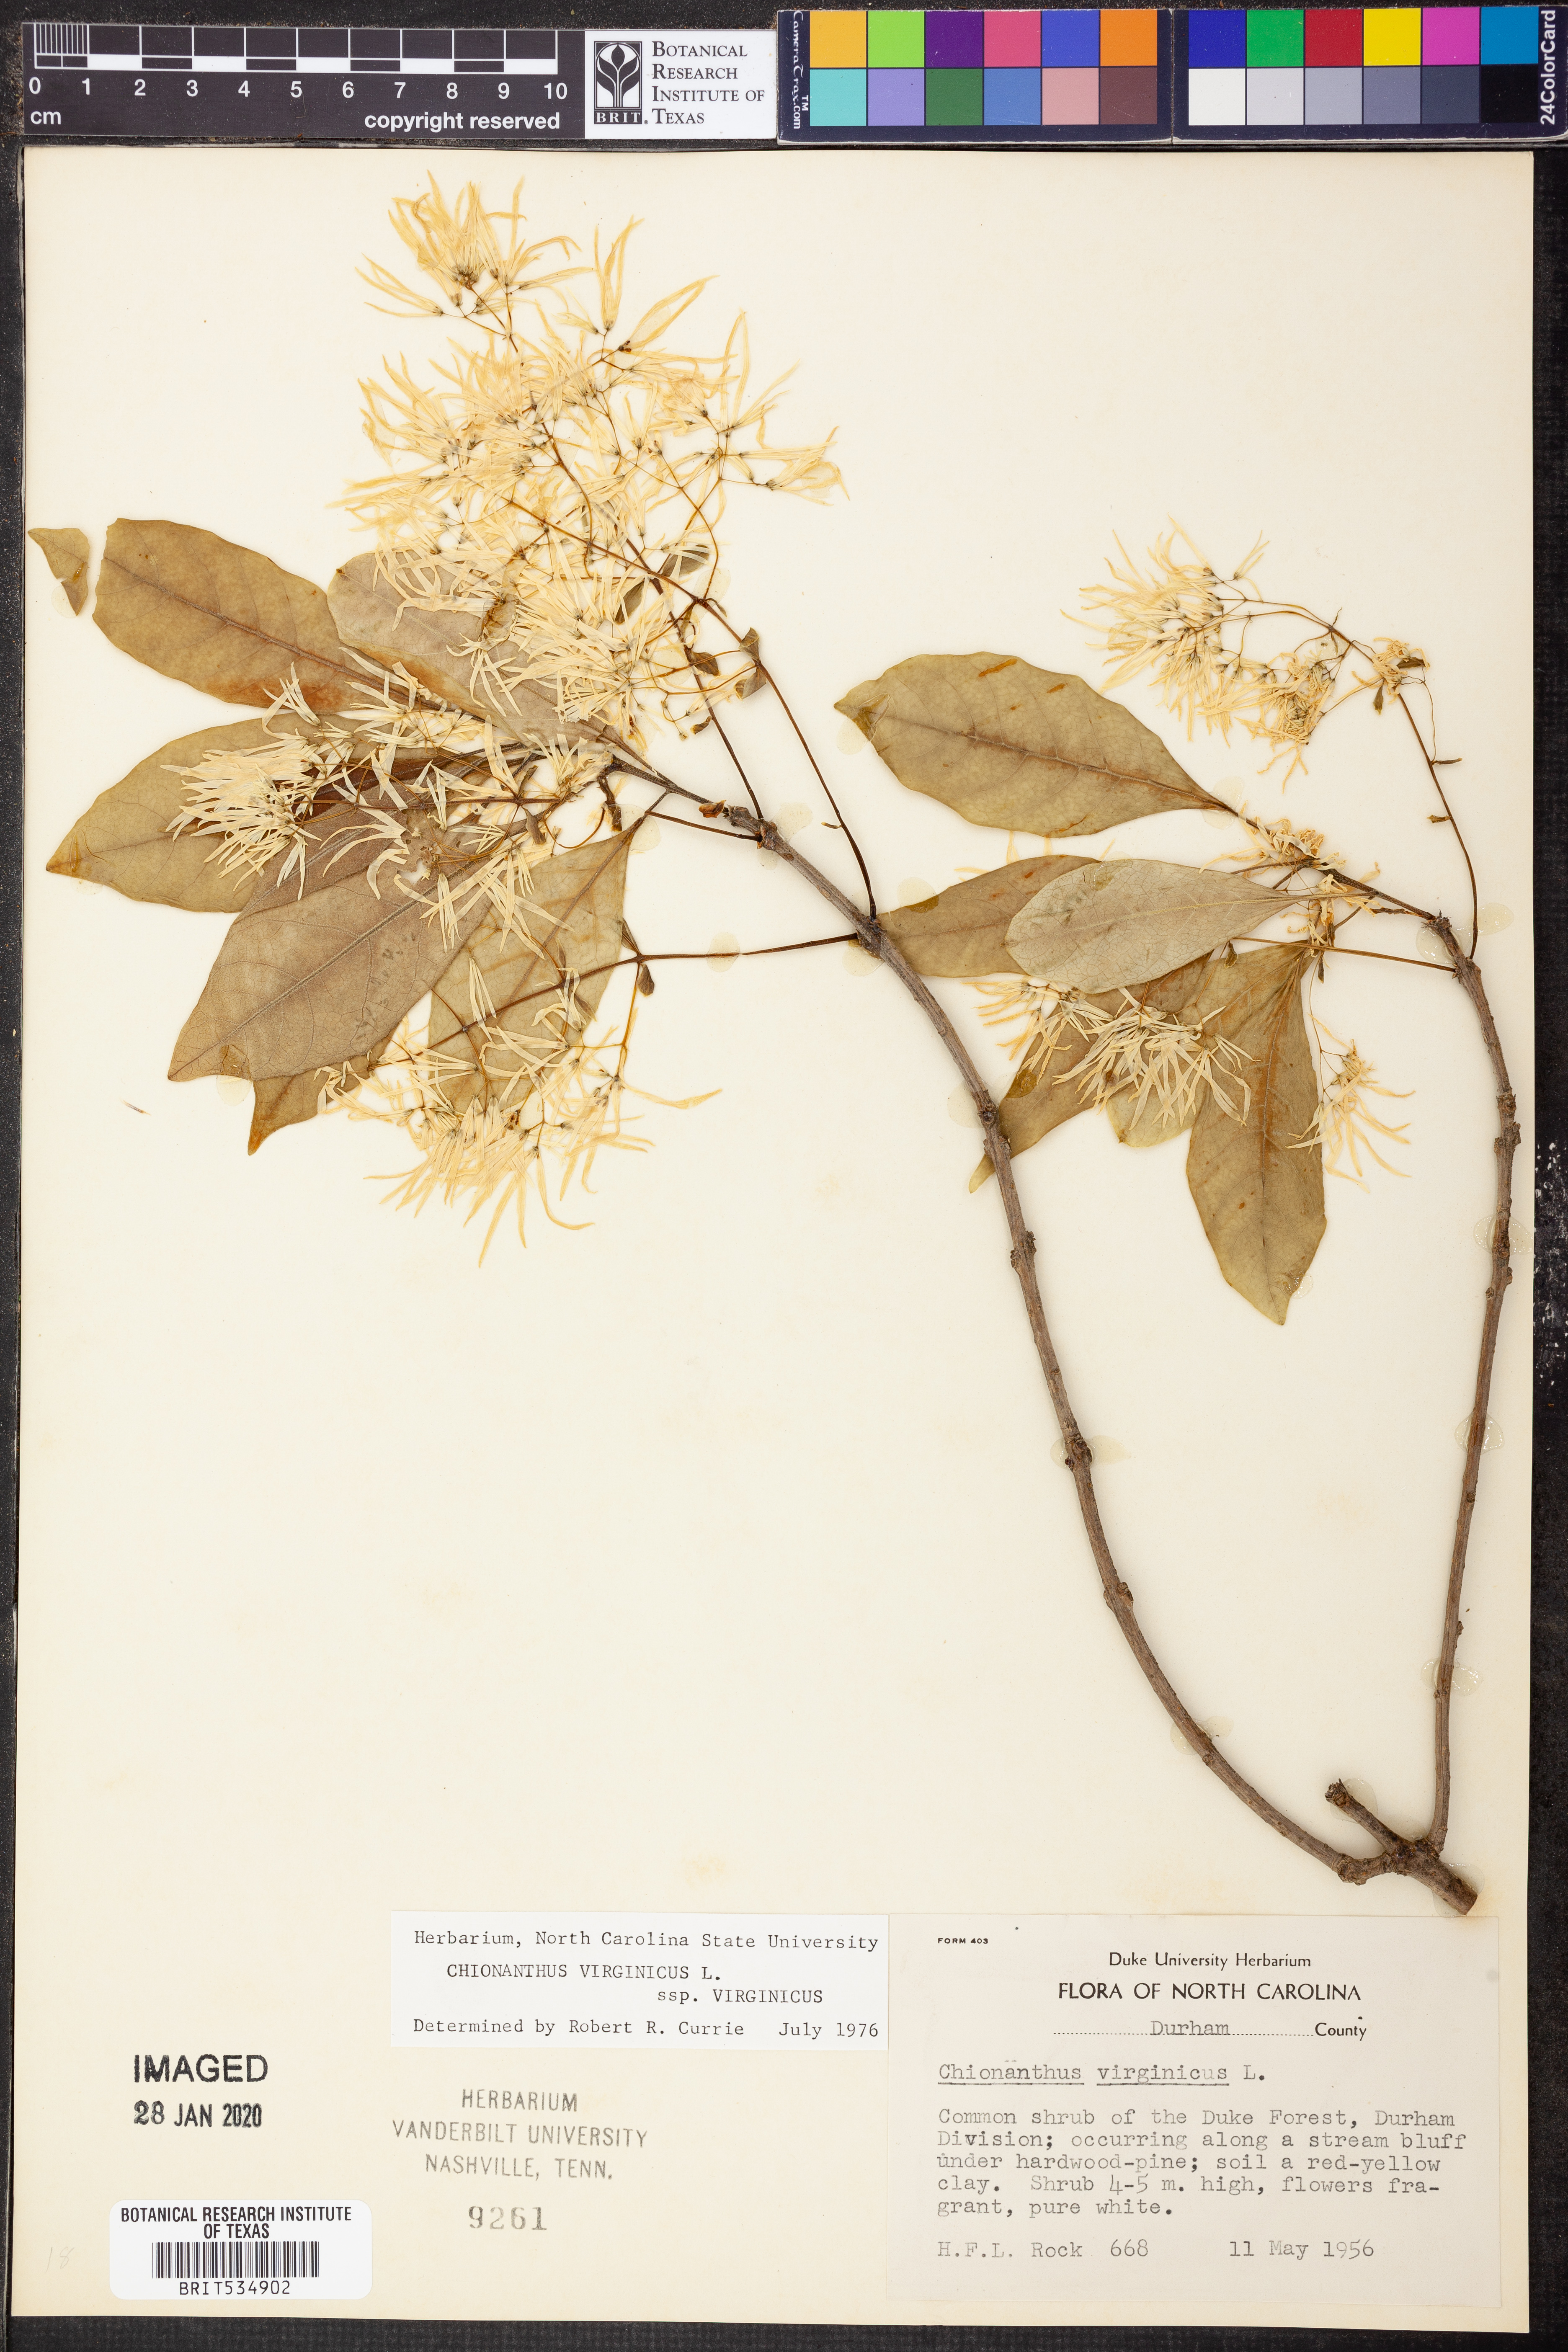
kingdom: Plantae
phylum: Tracheophyta
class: Magnoliopsida
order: Lamiales
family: Oleaceae
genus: Chionanthus
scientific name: Chionanthus virginicus
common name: American fringetree
